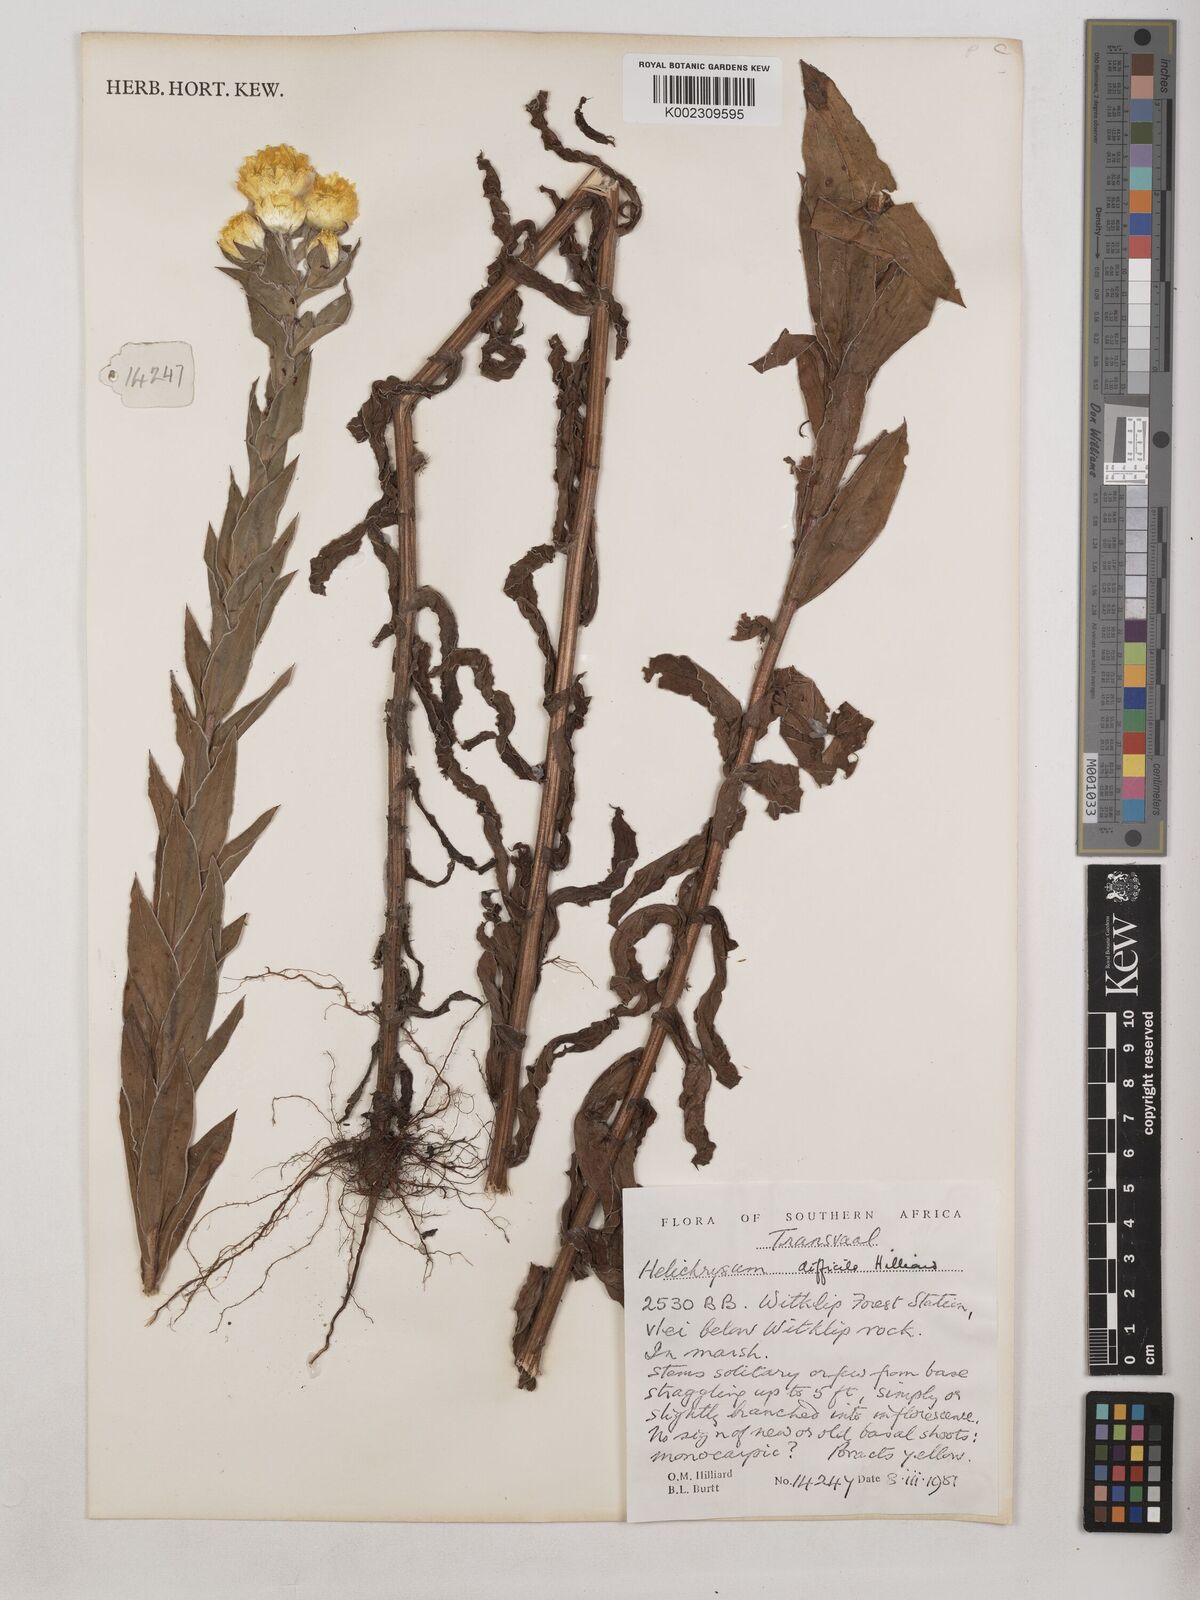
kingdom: Plantae
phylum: Tracheophyta
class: Magnoliopsida
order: Asterales
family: Asteraceae
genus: Helichrysum
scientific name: Helichrysum difficile
